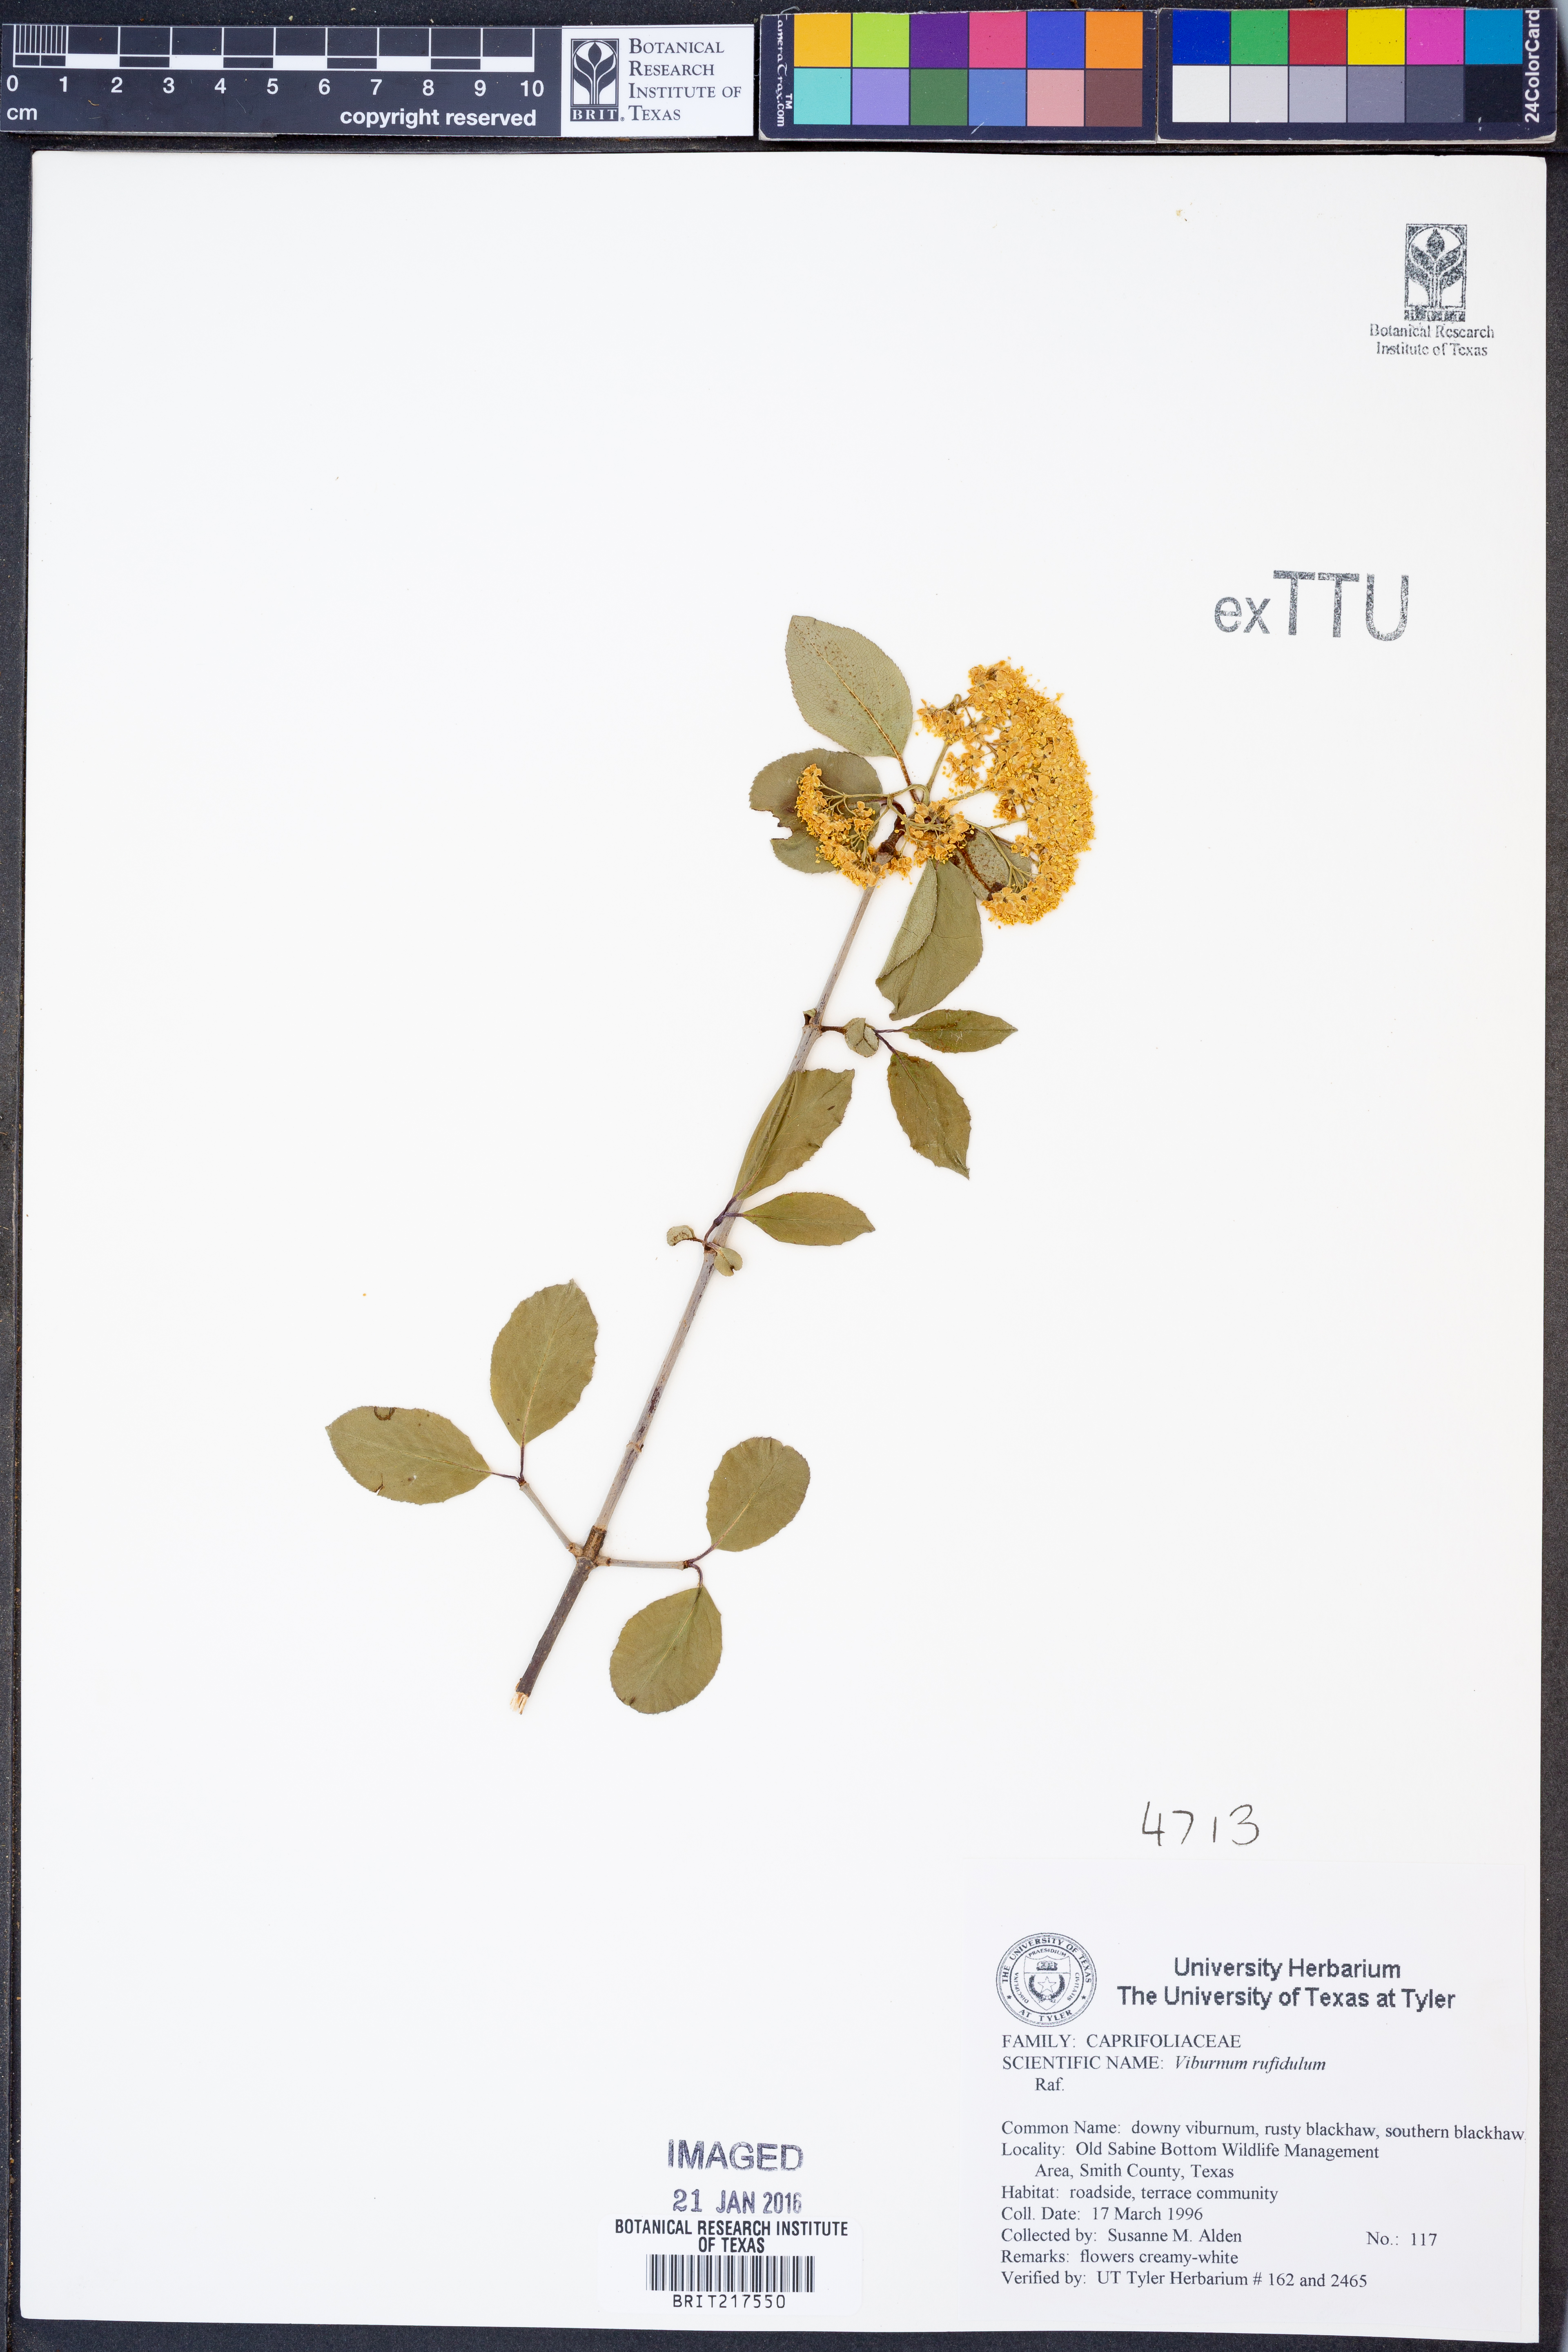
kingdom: Plantae
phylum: Tracheophyta
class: Magnoliopsida
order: Dipsacales
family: Viburnaceae
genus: Viburnum
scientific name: Viburnum rufidulum
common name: Blue haw
